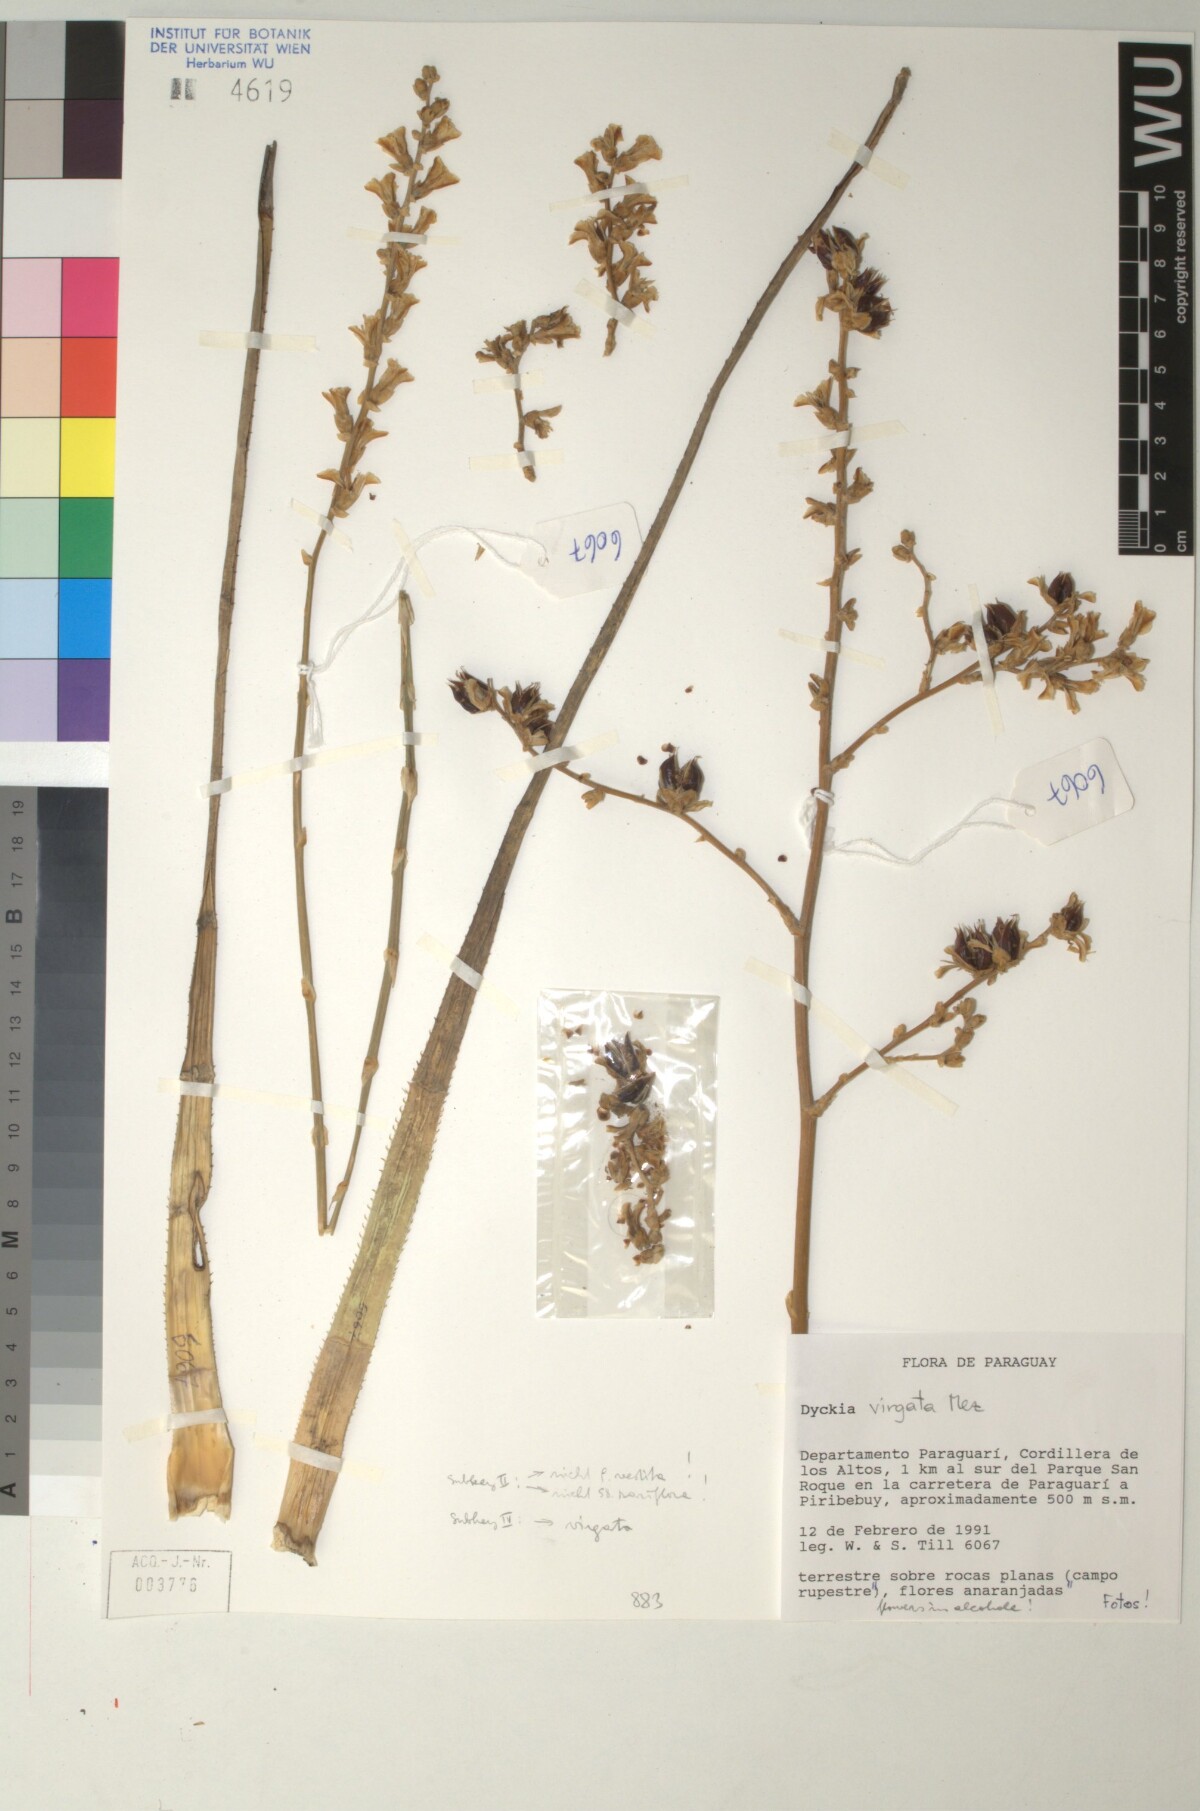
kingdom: Plantae
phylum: Tracheophyta
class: Liliopsida
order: Poales
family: Bromeliaceae
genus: Dyckia
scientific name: Dyckia virgata
